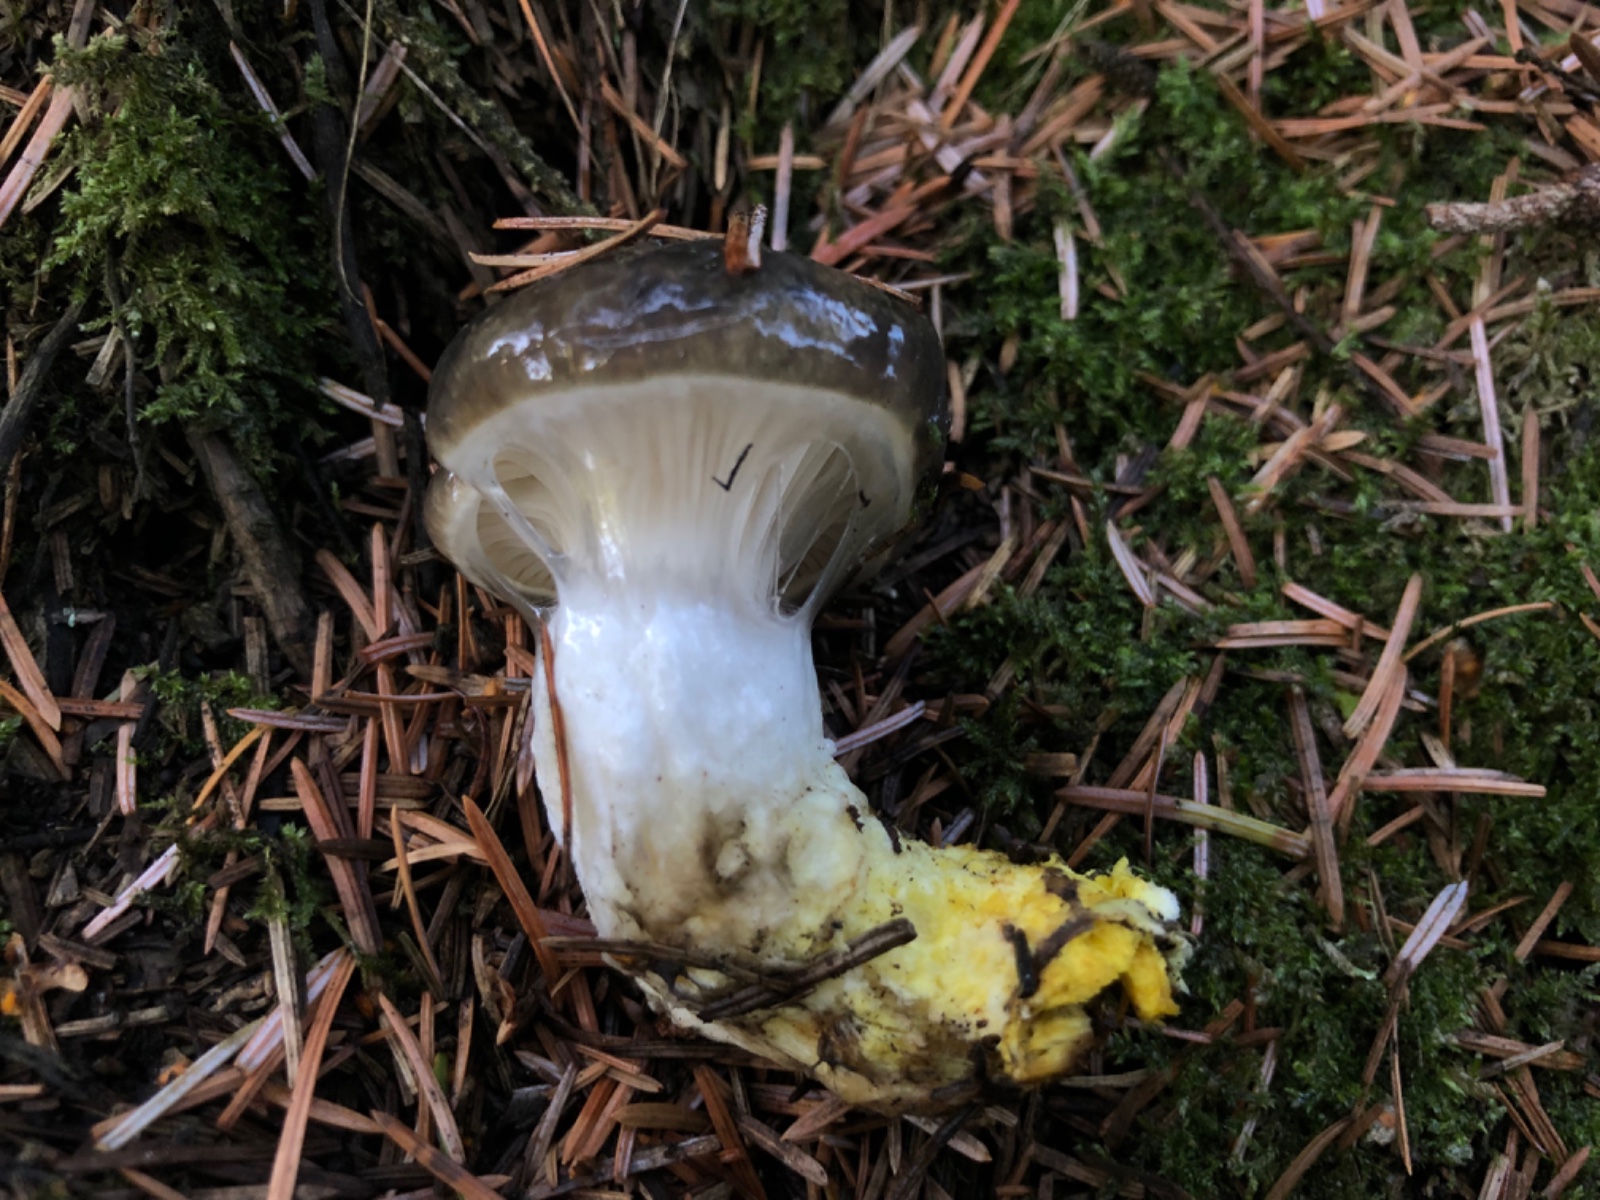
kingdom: Fungi
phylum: Basidiomycota
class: Agaricomycetes
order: Boletales
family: Gomphidiaceae
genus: Gomphidius
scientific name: Gomphidius glutinosus
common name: grå slimslør
